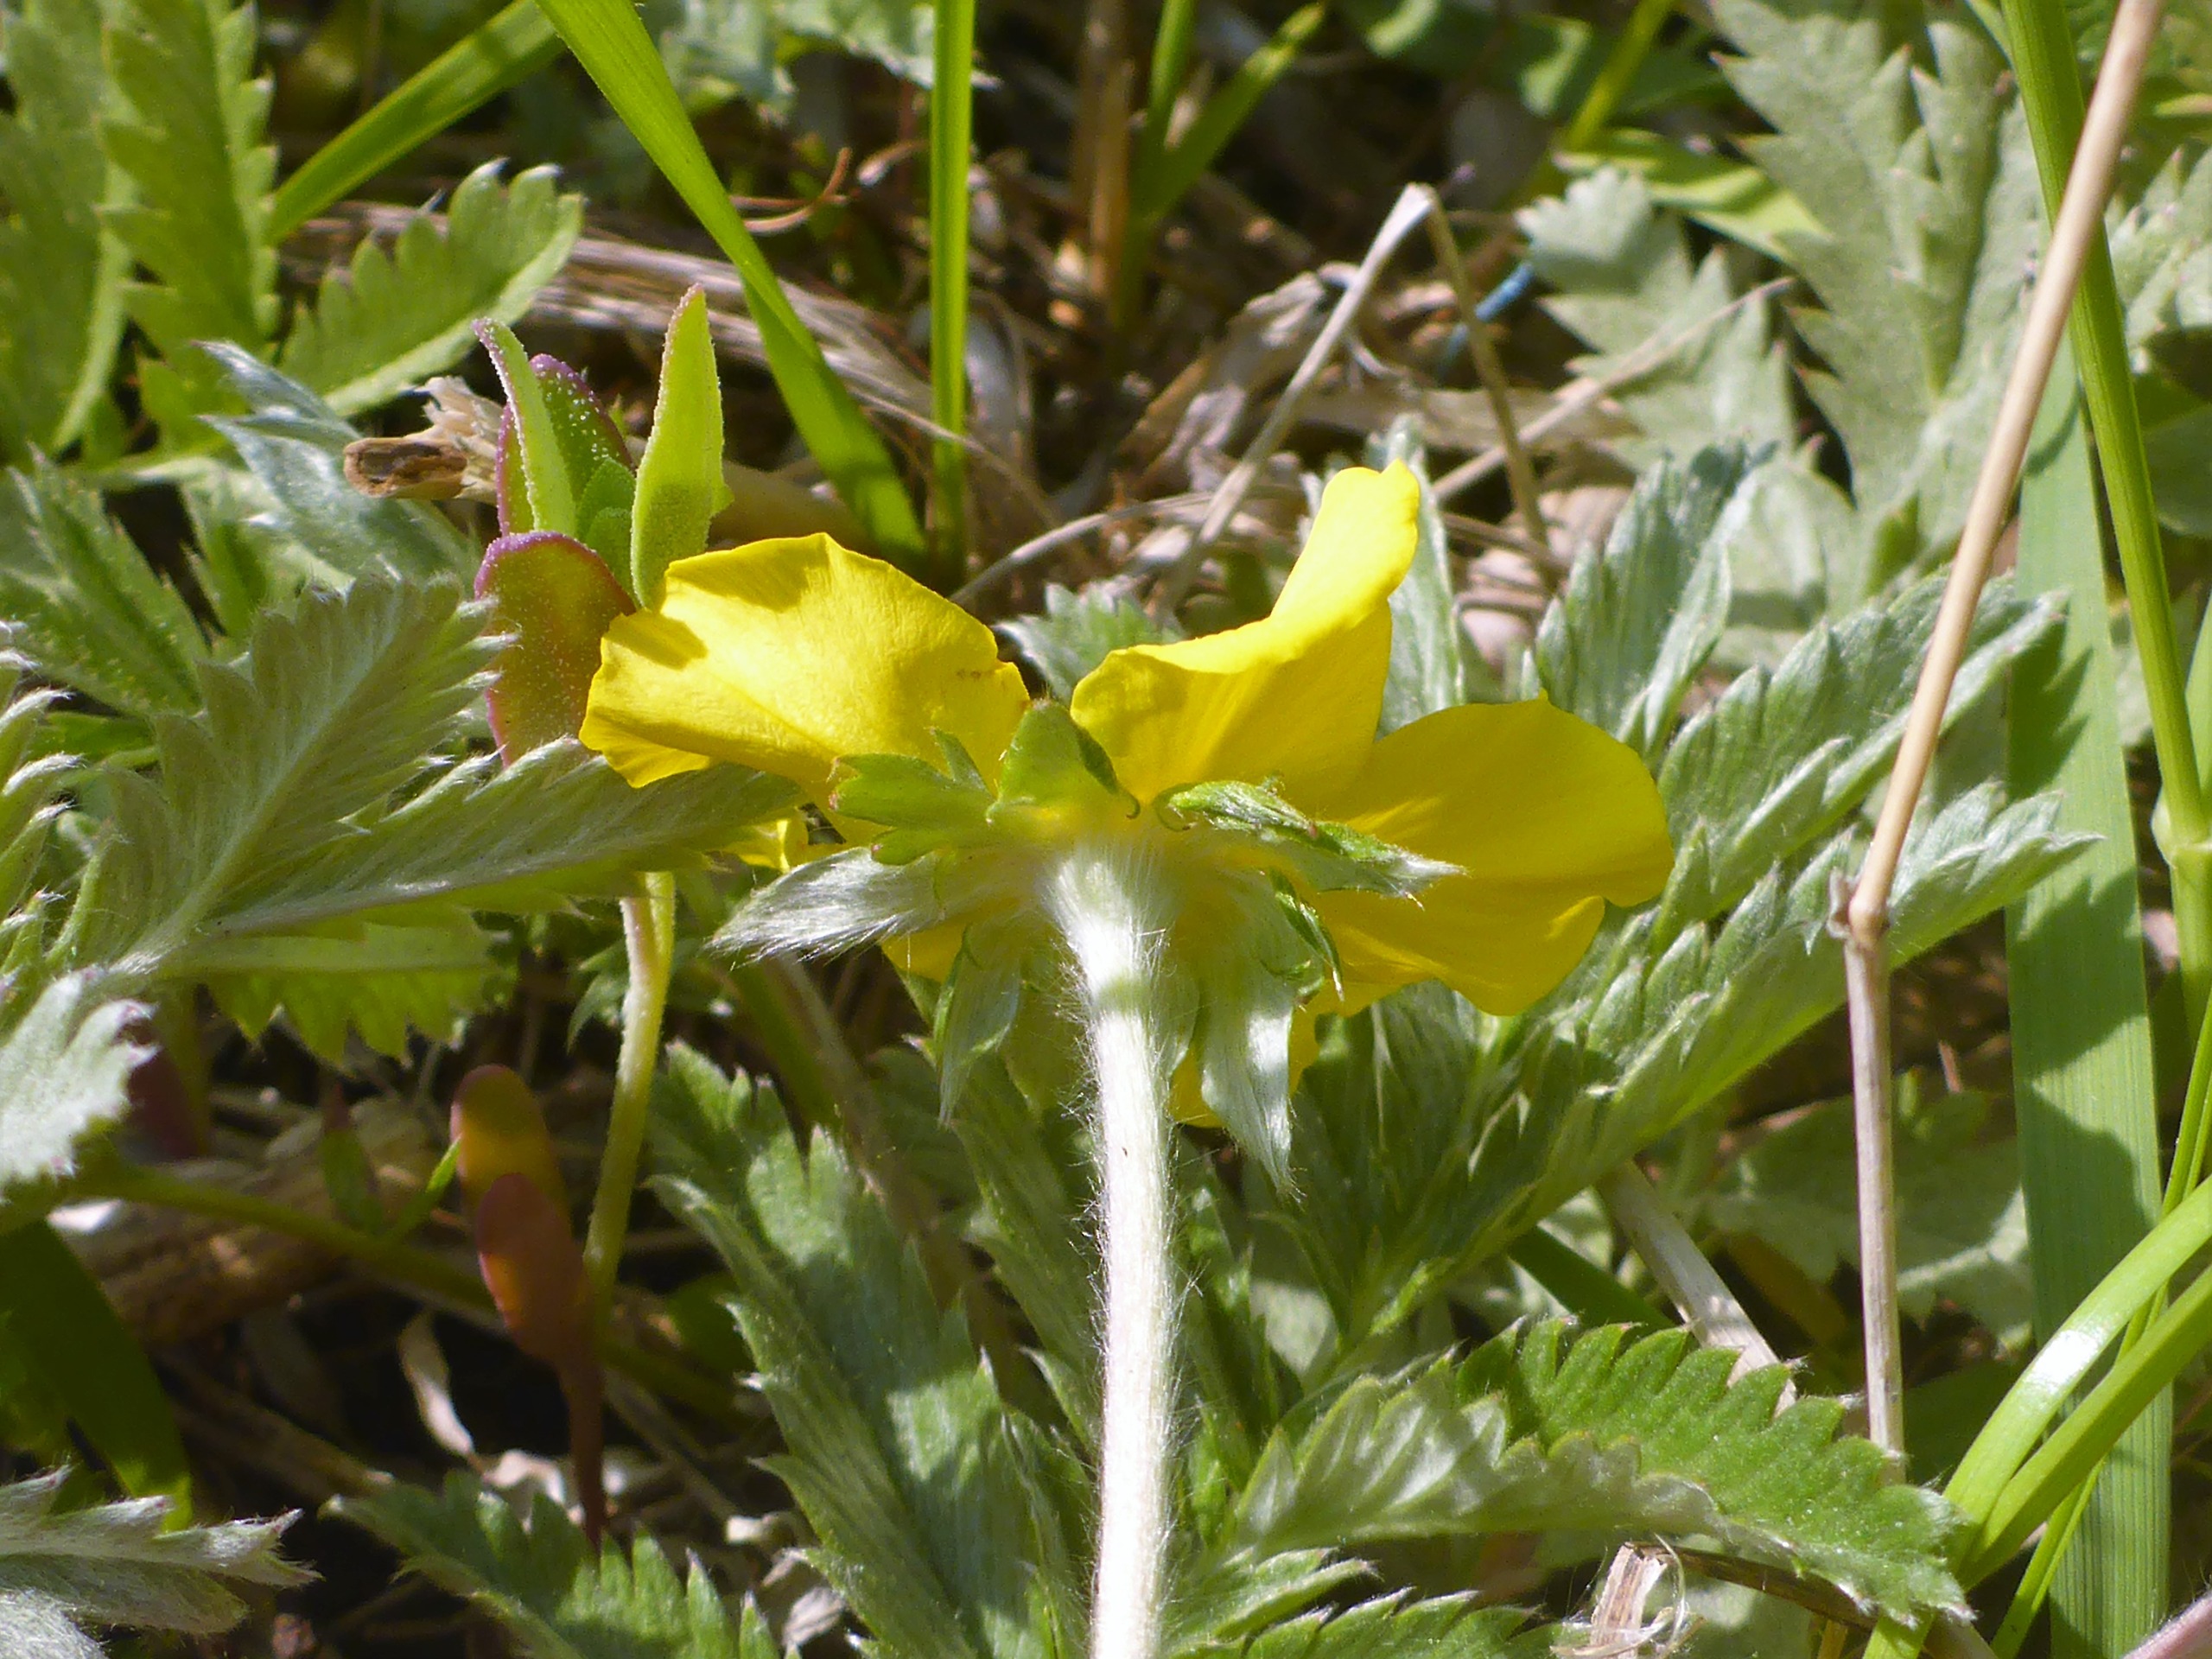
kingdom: Plantae
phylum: Tracheophyta
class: Magnoliopsida
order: Rosales
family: Rosaceae
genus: Argentina
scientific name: Argentina anserina
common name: Gåsepotentil
